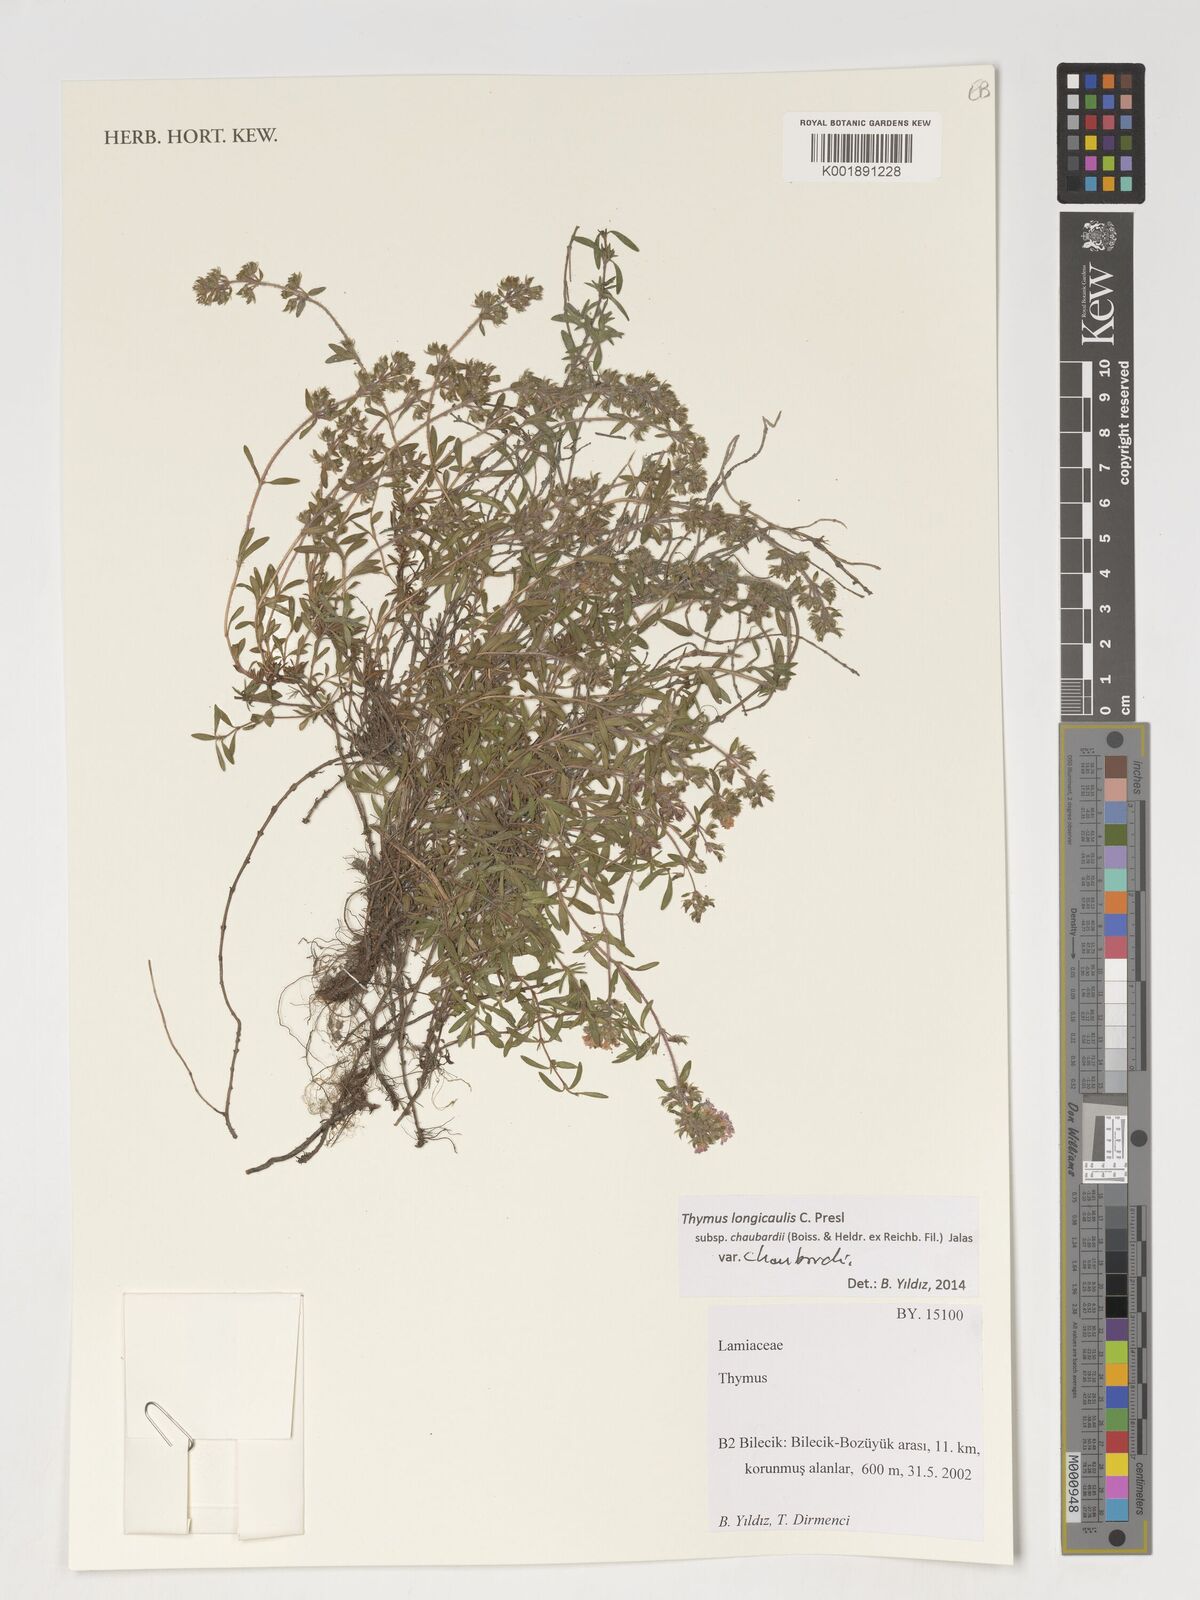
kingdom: Plantae
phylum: Tracheophyta
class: Magnoliopsida
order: Lamiales
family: Lamiaceae
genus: Thymus
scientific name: Thymus
